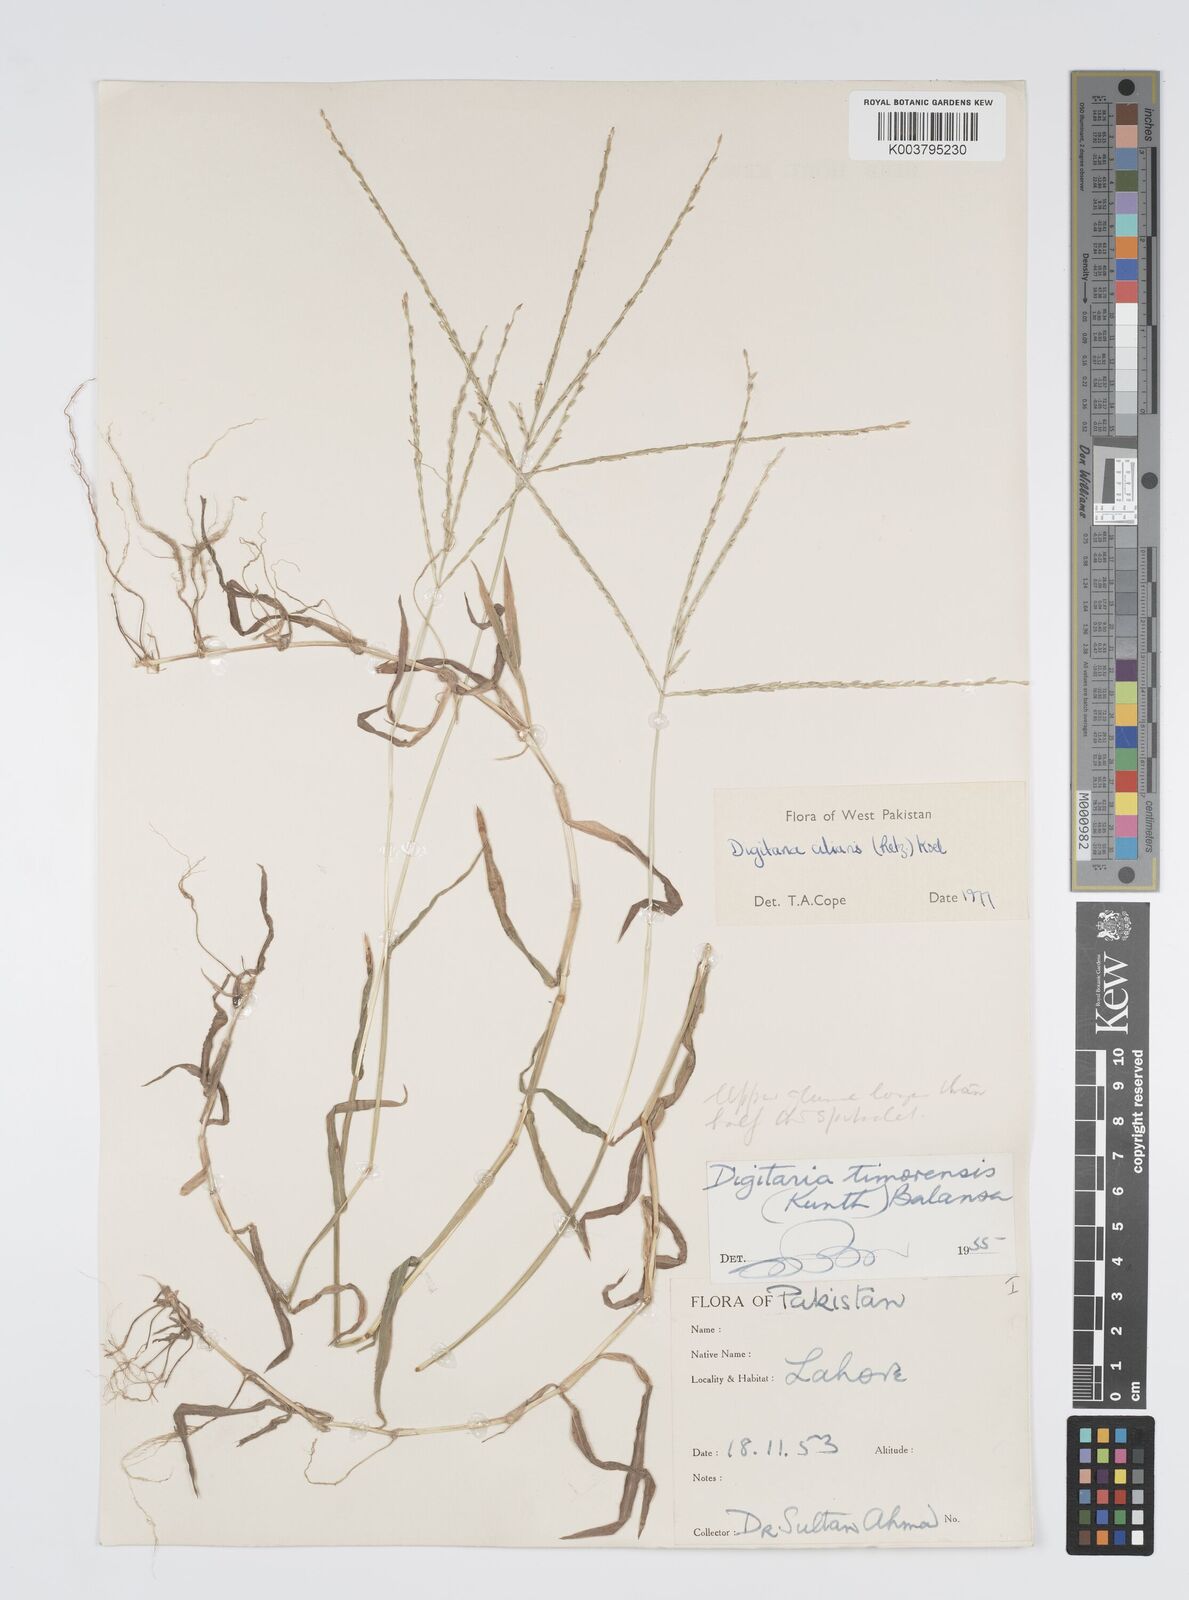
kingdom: Plantae
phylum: Tracheophyta
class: Liliopsida
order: Poales
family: Poaceae
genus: Digitaria
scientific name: Digitaria ciliaris
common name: Tropical finger-grass
